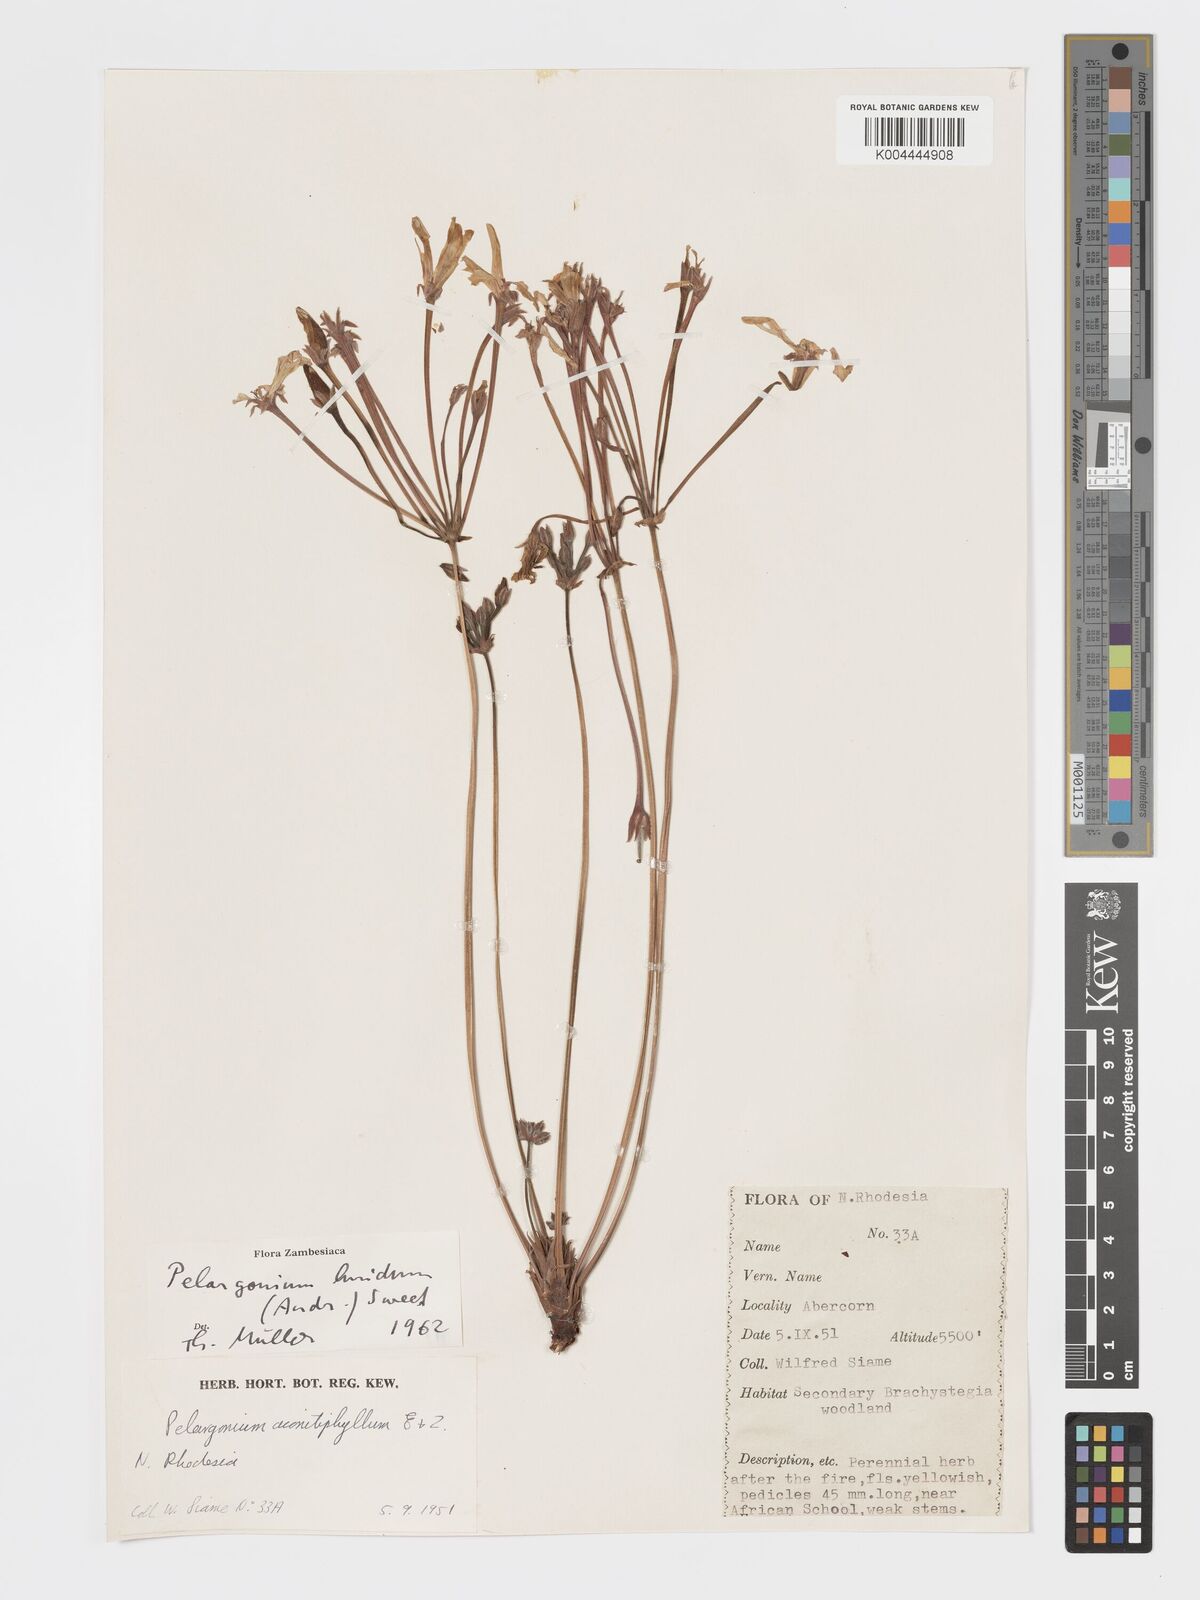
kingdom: Plantae
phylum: Tracheophyta
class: Magnoliopsida
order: Geraniales
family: Geraniaceae
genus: Pelargonium
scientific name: Pelargonium luridum
